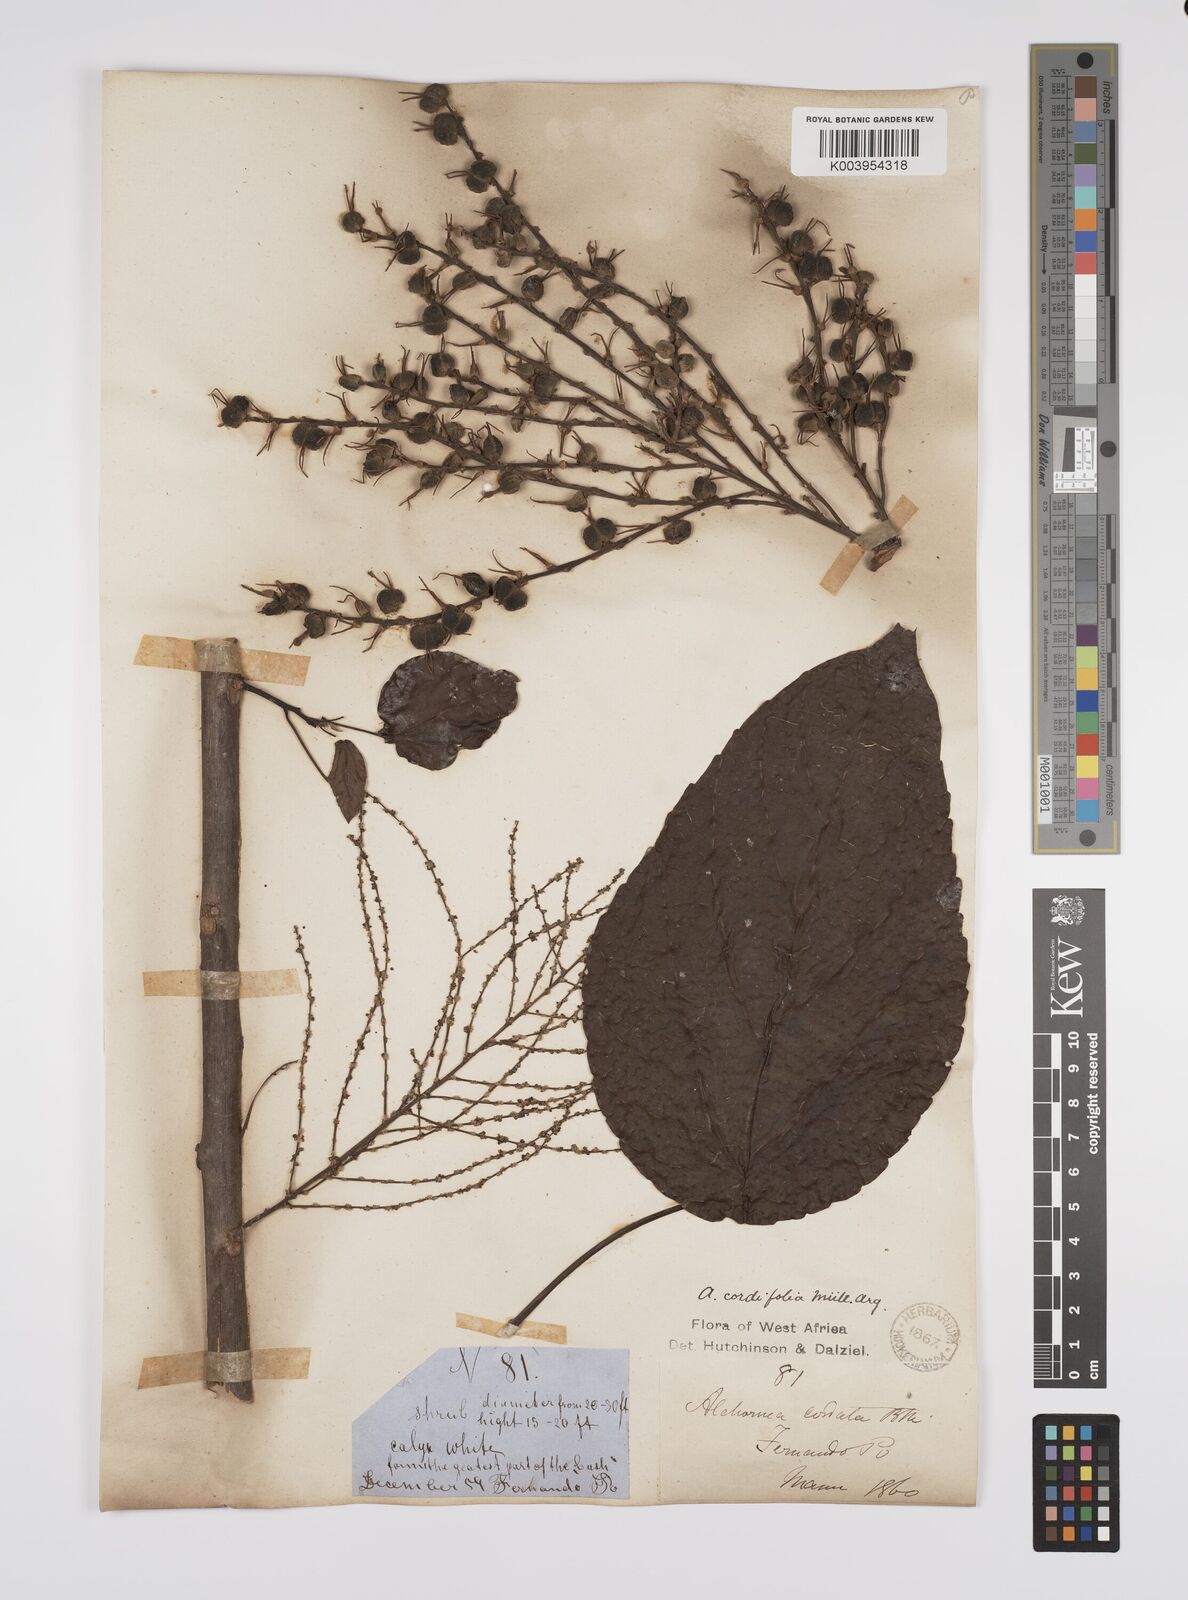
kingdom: Plantae
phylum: Tracheophyta
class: Magnoliopsida
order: Malpighiales
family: Euphorbiaceae
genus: Alchornea
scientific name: Alchornea cordifolia
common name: Christmasbush
